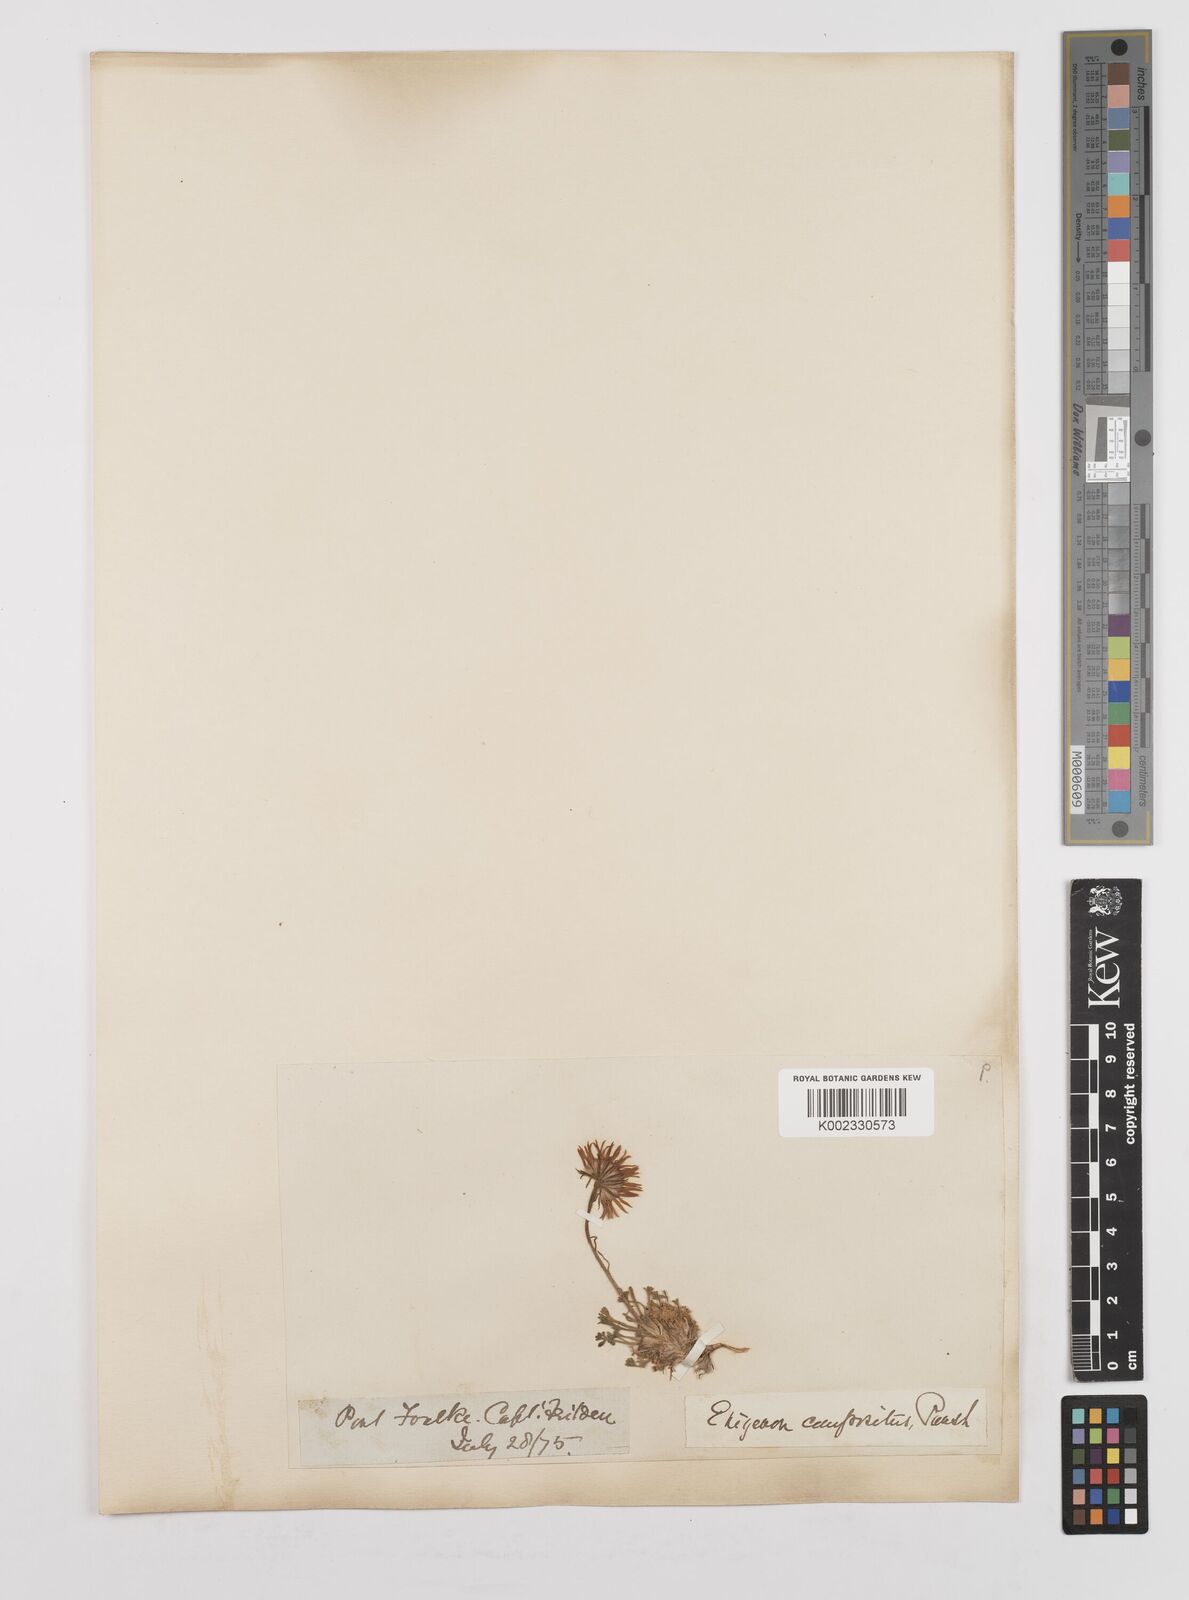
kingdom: Plantae
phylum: Tracheophyta
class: Magnoliopsida
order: Asterales
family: Asteraceae
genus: Erigeron
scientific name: Erigeron compositus
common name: Dwarf mountain fleabane
